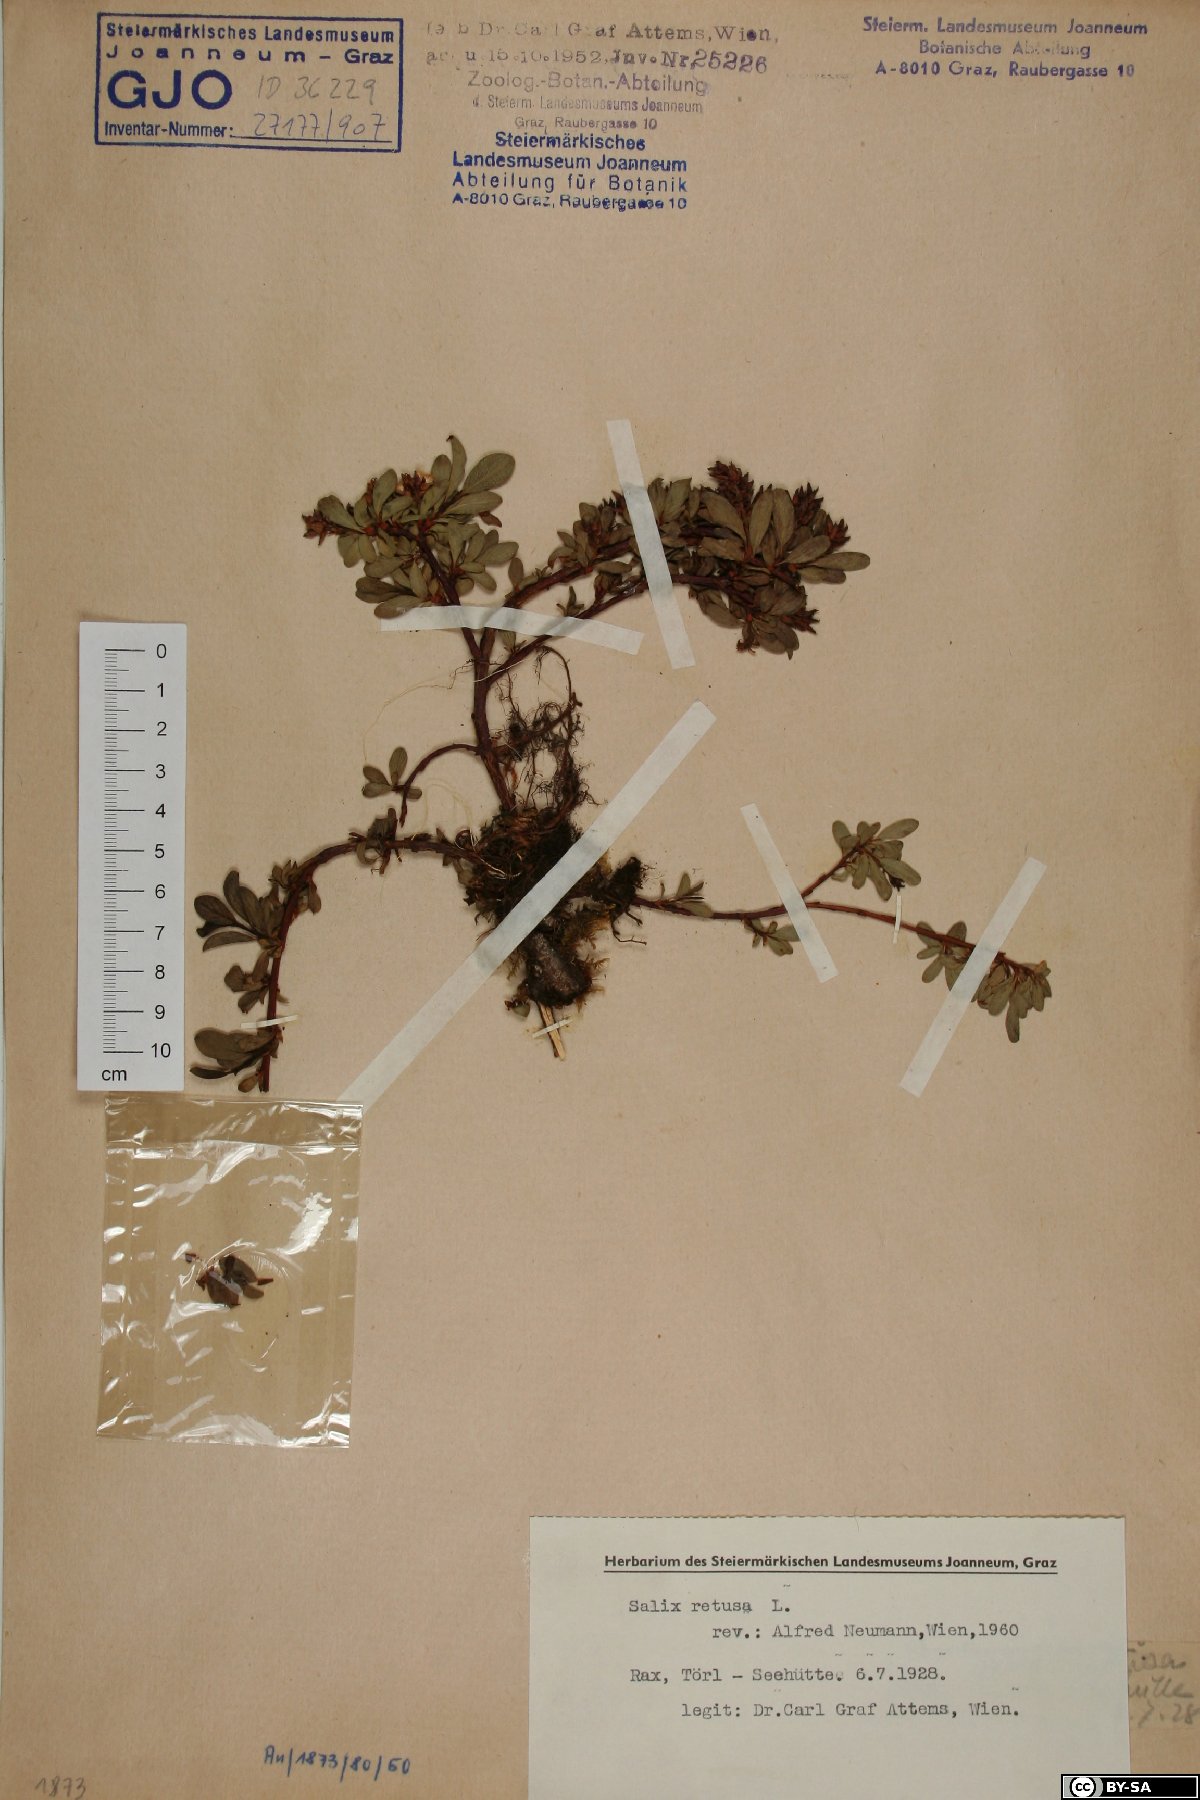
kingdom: Plantae
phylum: Tracheophyta
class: Magnoliopsida
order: Malpighiales
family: Salicaceae
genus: Salix
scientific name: Salix retusa
